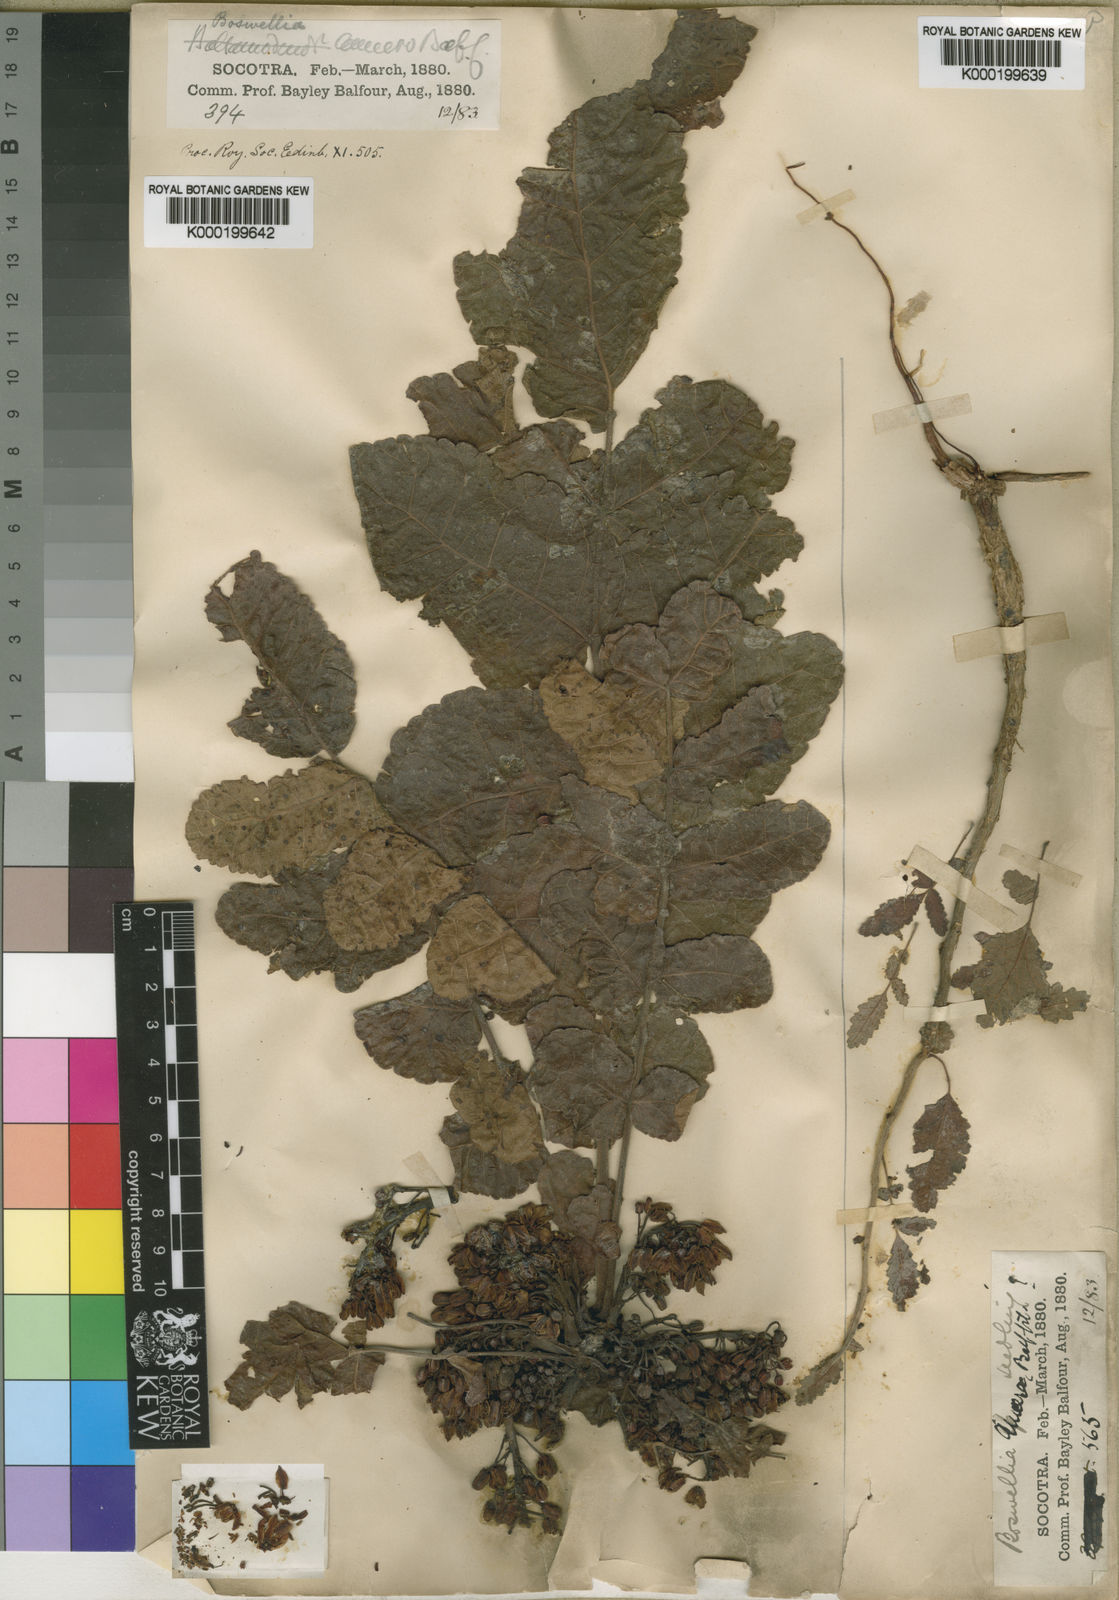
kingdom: Plantae
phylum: Tracheophyta
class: Magnoliopsida
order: Sapindales
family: Burseraceae
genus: Boswellia
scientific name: Boswellia ameero
